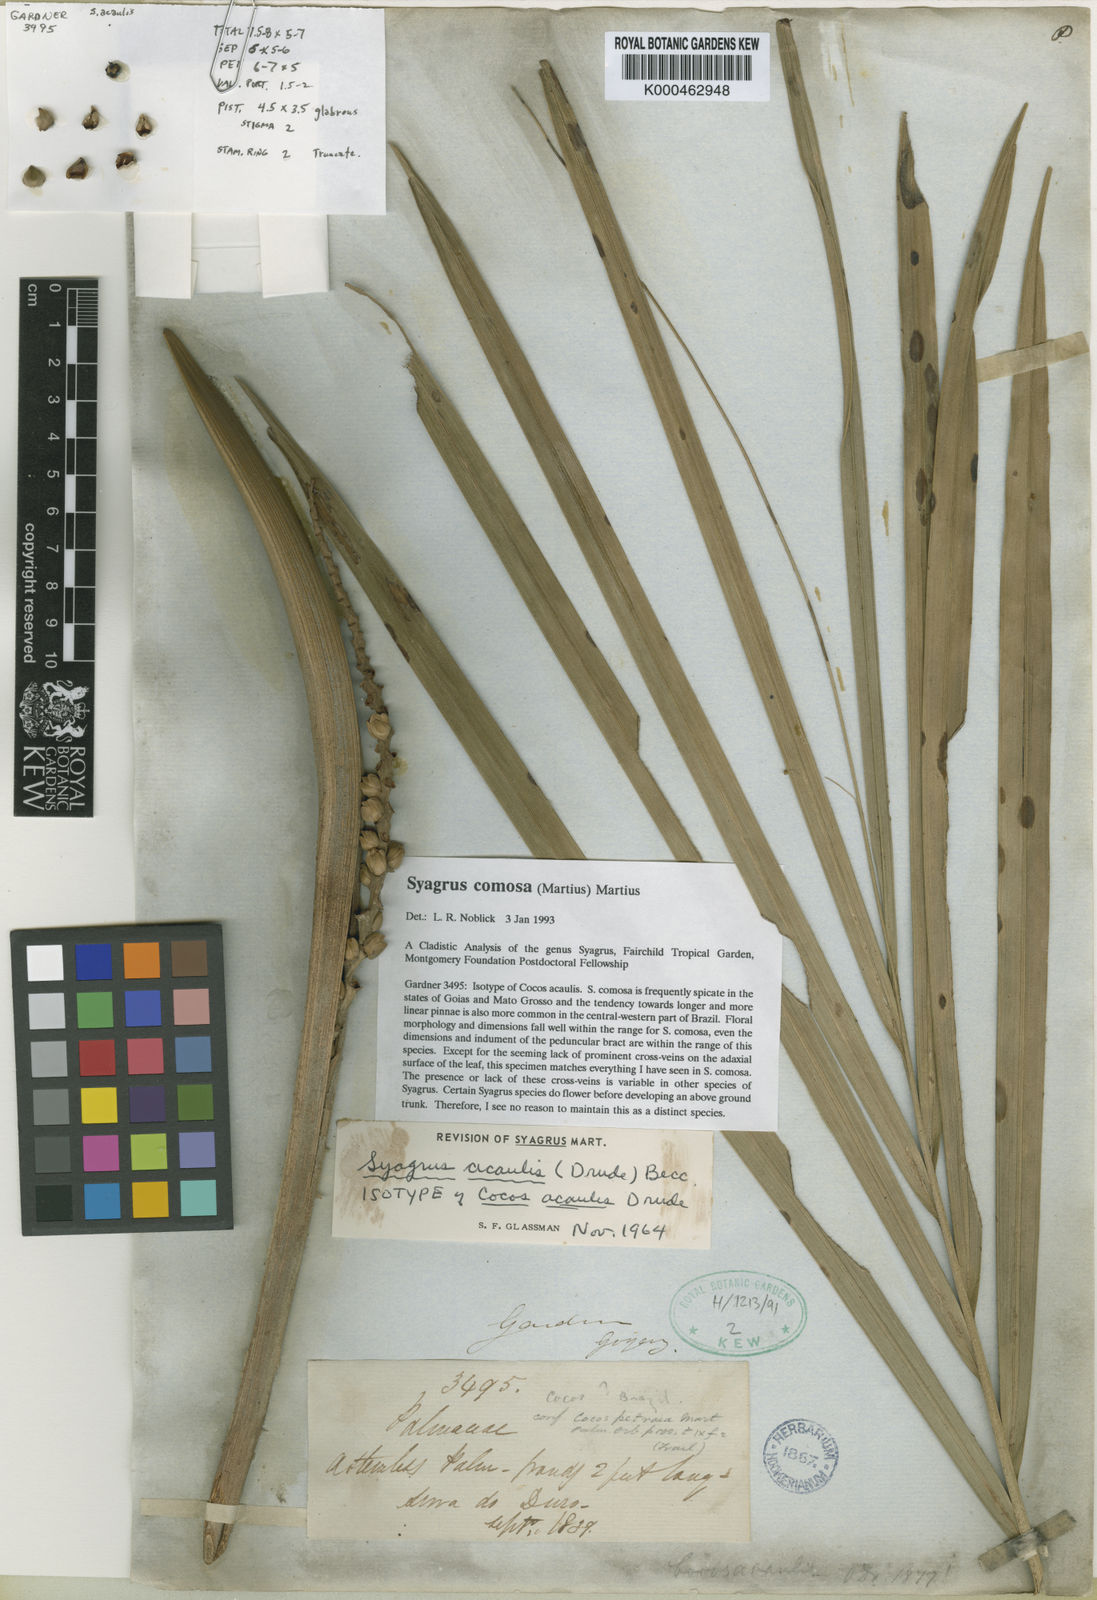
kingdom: Plantae
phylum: Tracheophyta
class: Liliopsida
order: Arecales
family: Arecaceae
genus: Syagrus
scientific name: Syagrus comosa
